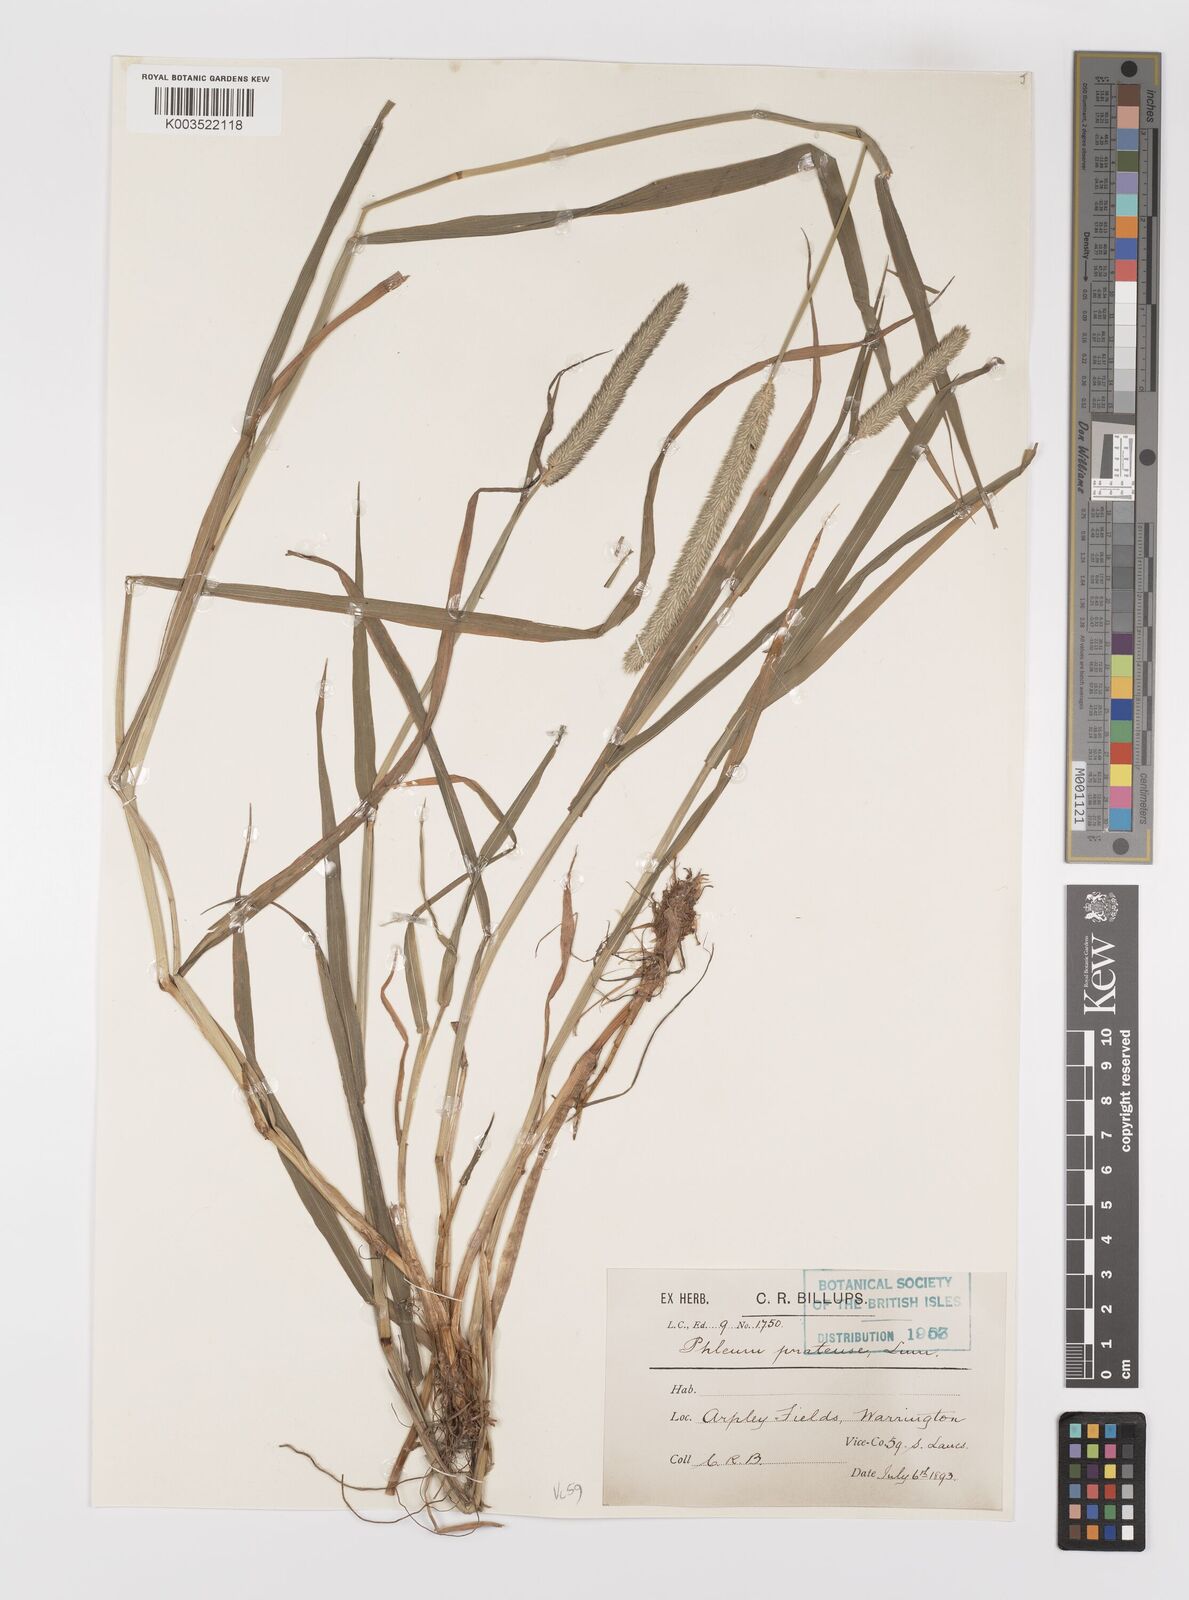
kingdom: Plantae
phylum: Tracheophyta
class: Liliopsida
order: Poales
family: Poaceae
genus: Phleum
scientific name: Phleum pratense
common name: Timothy grass
